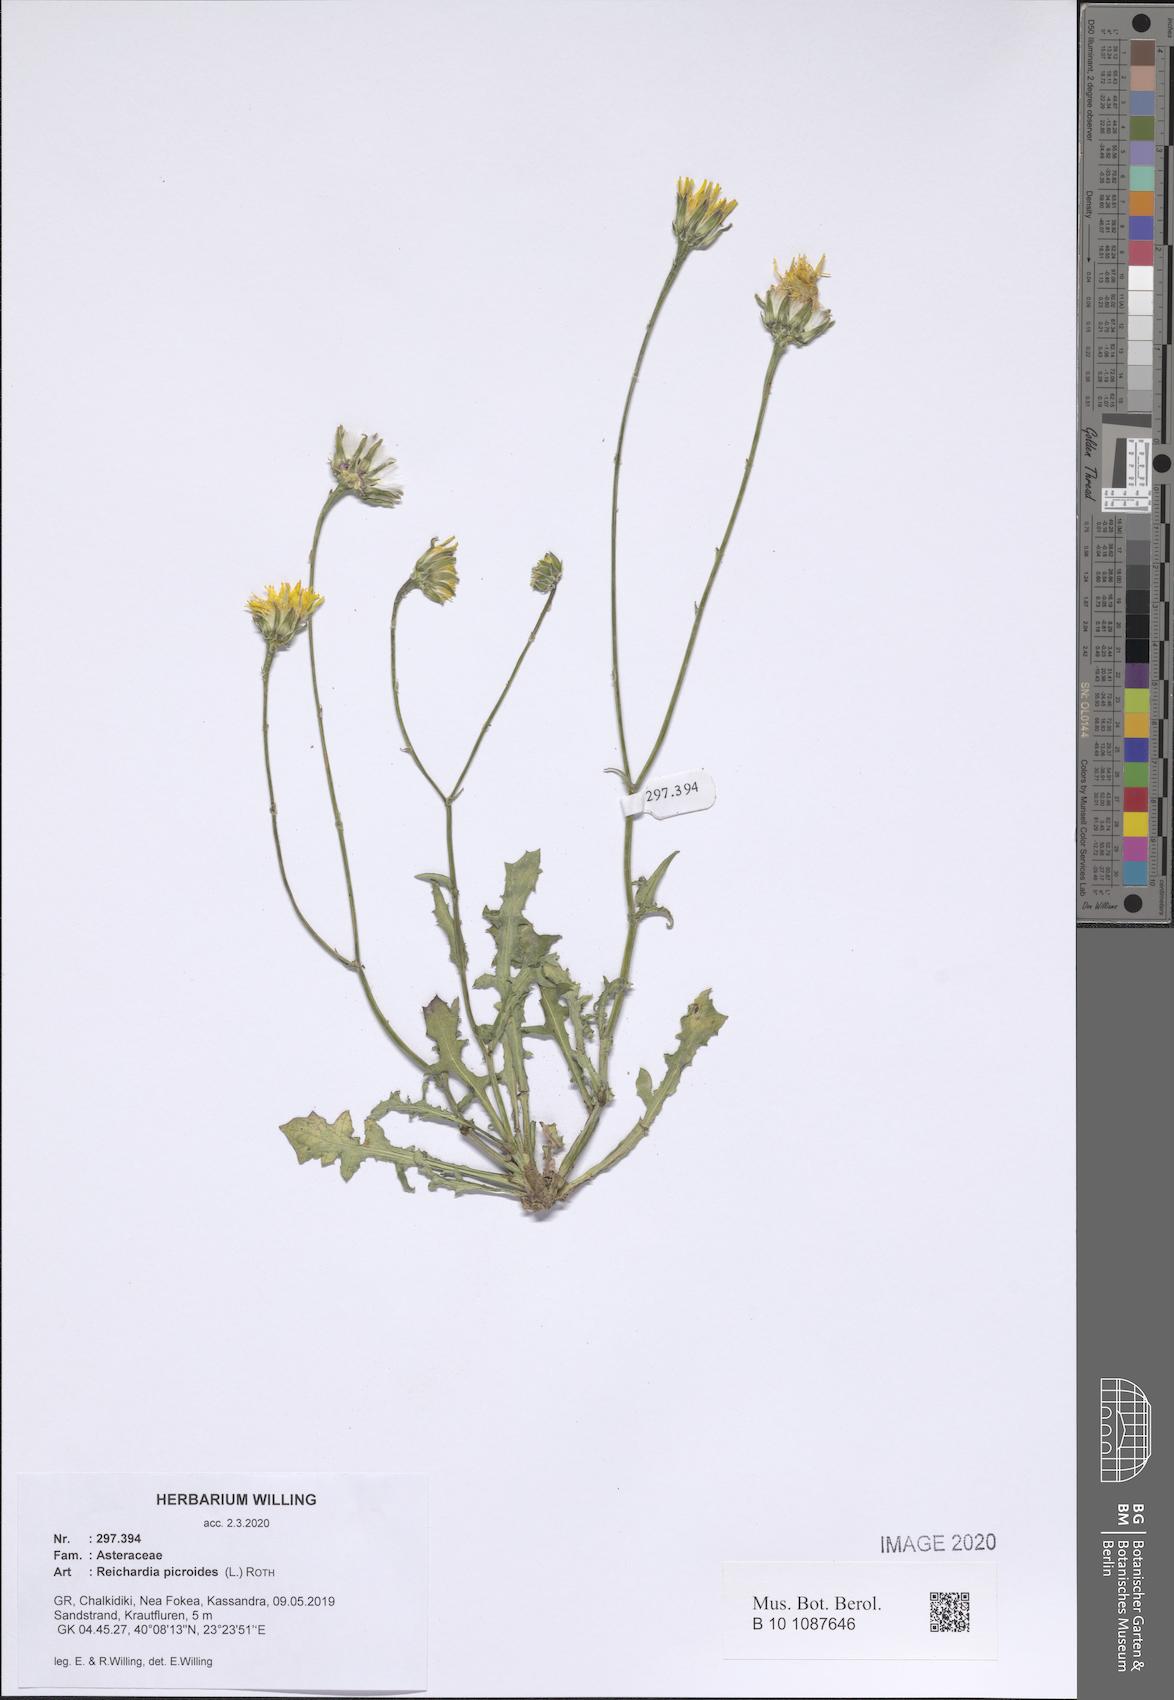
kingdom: Plantae
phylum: Tracheophyta
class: Magnoliopsida
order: Asterales
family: Asteraceae
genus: Reichardia
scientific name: Reichardia picroides
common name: Common brighteyes
